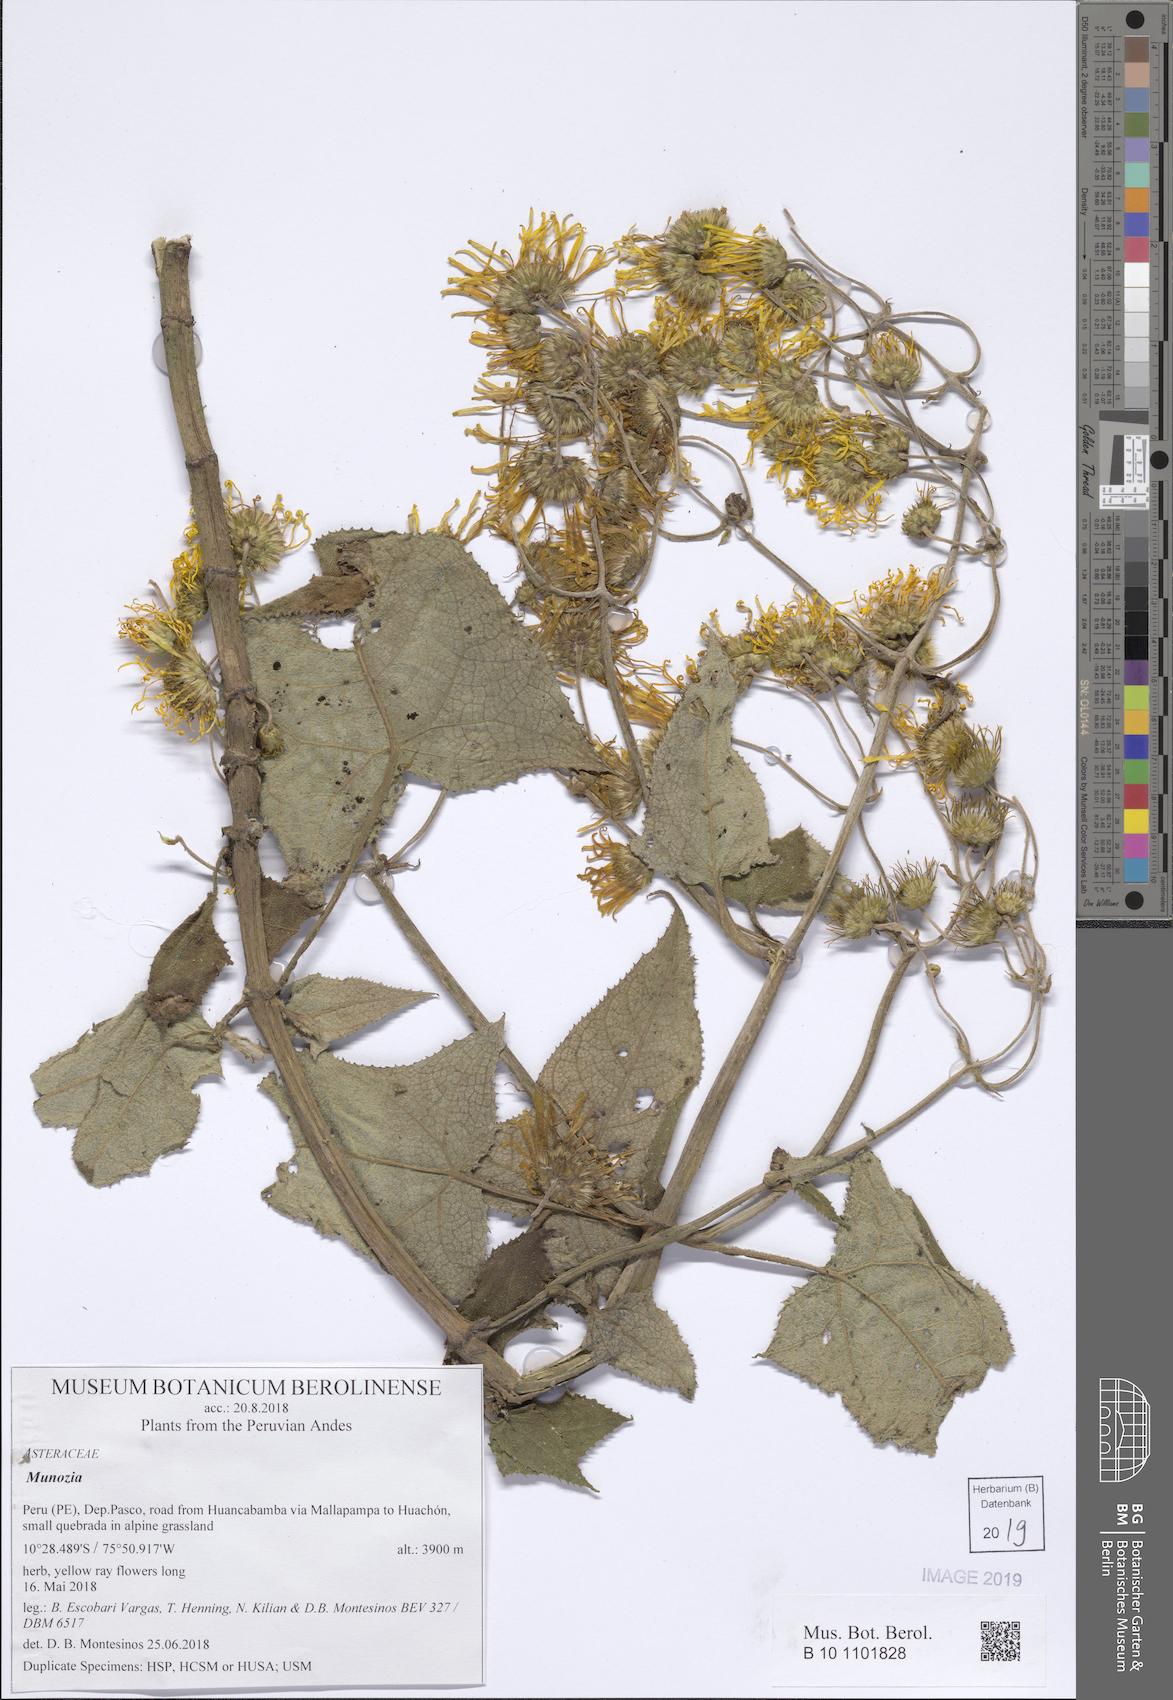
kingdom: Plantae
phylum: Tracheophyta
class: Magnoliopsida
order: Asterales
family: Asteraceae
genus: Munnozia
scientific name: Munnozia senecionidis
